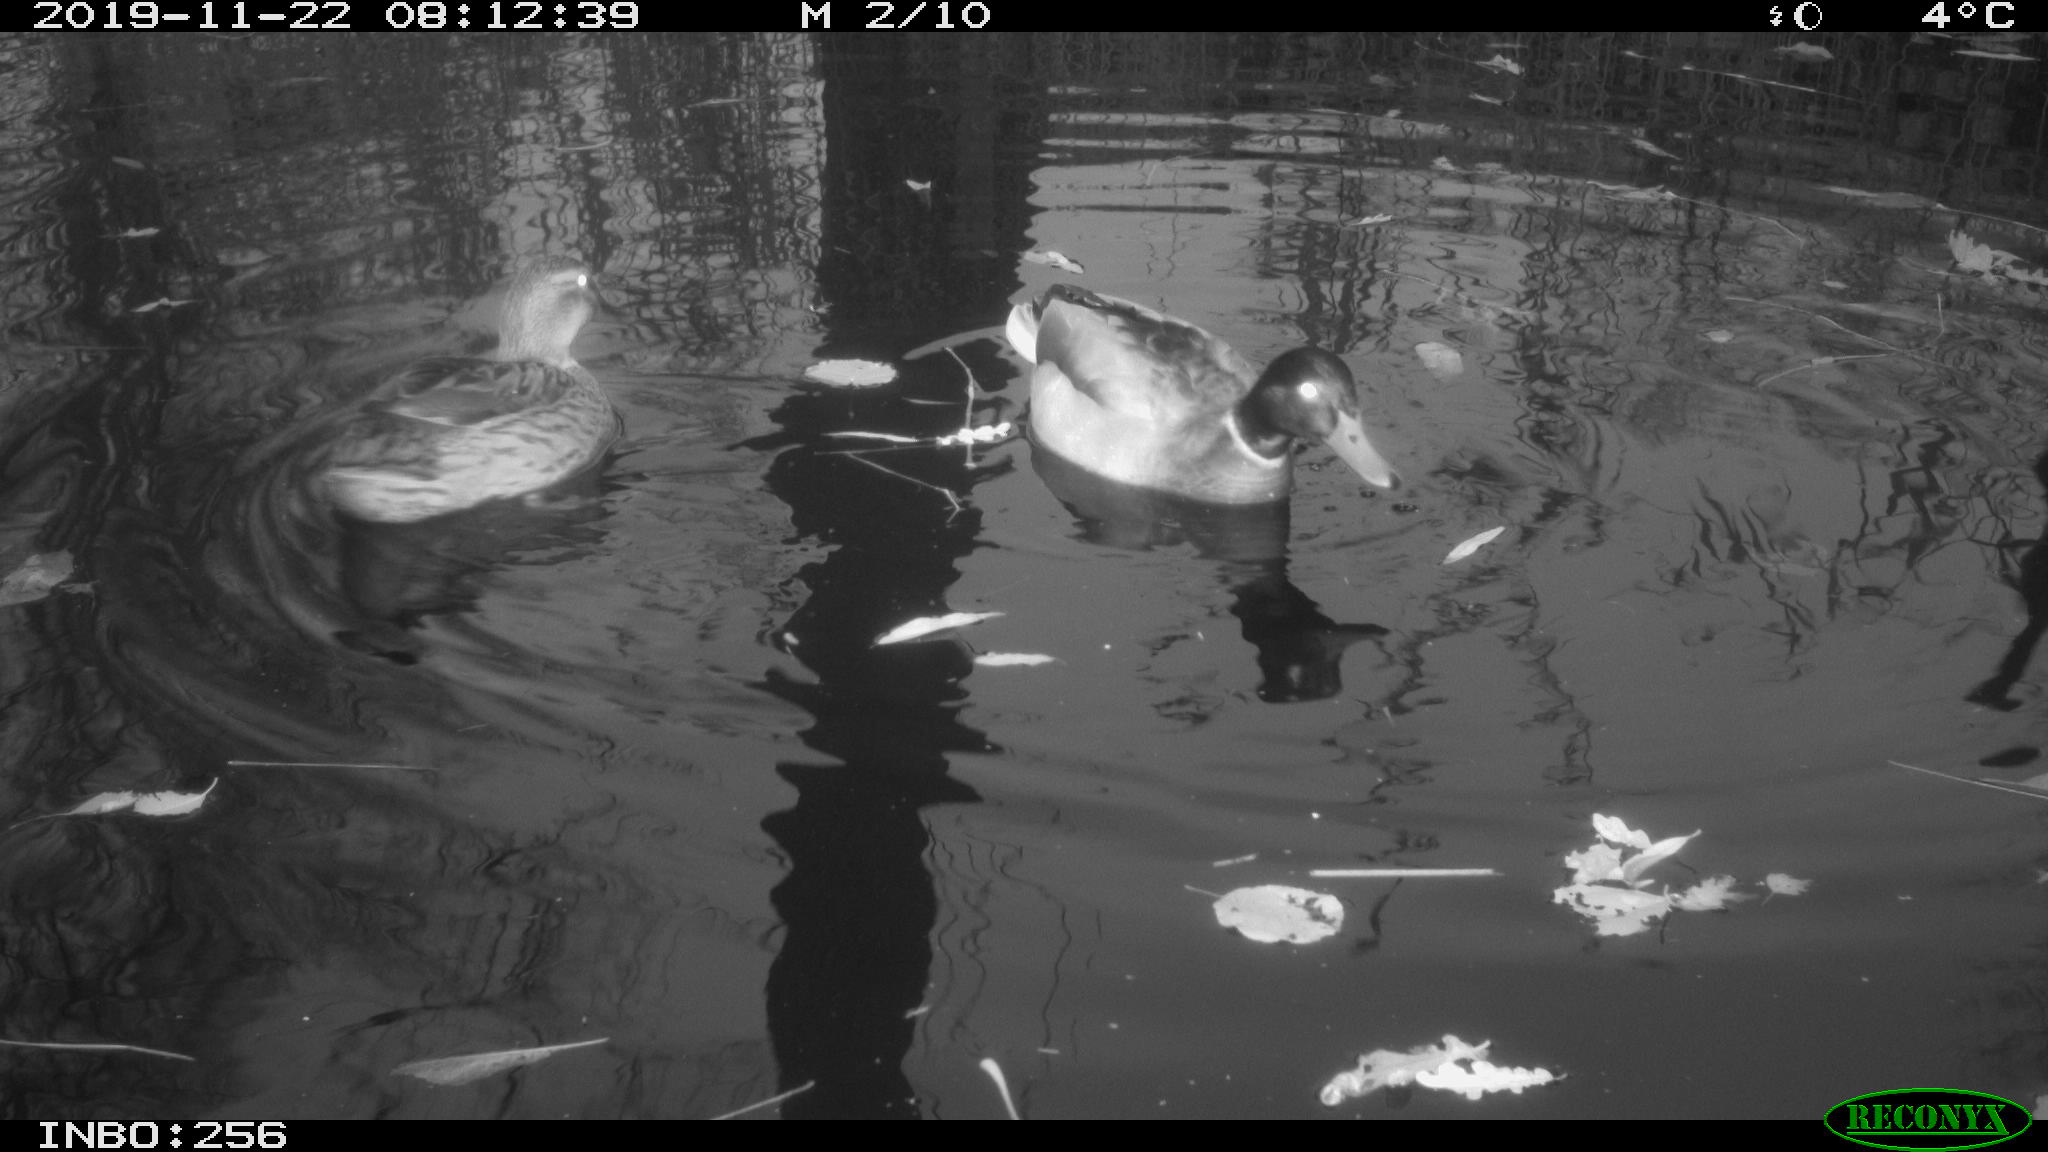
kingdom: Animalia
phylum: Chordata
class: Aves
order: Anseriformes
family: Anatidae
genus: Anas
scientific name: Anas platyrhynchos
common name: Mallard
